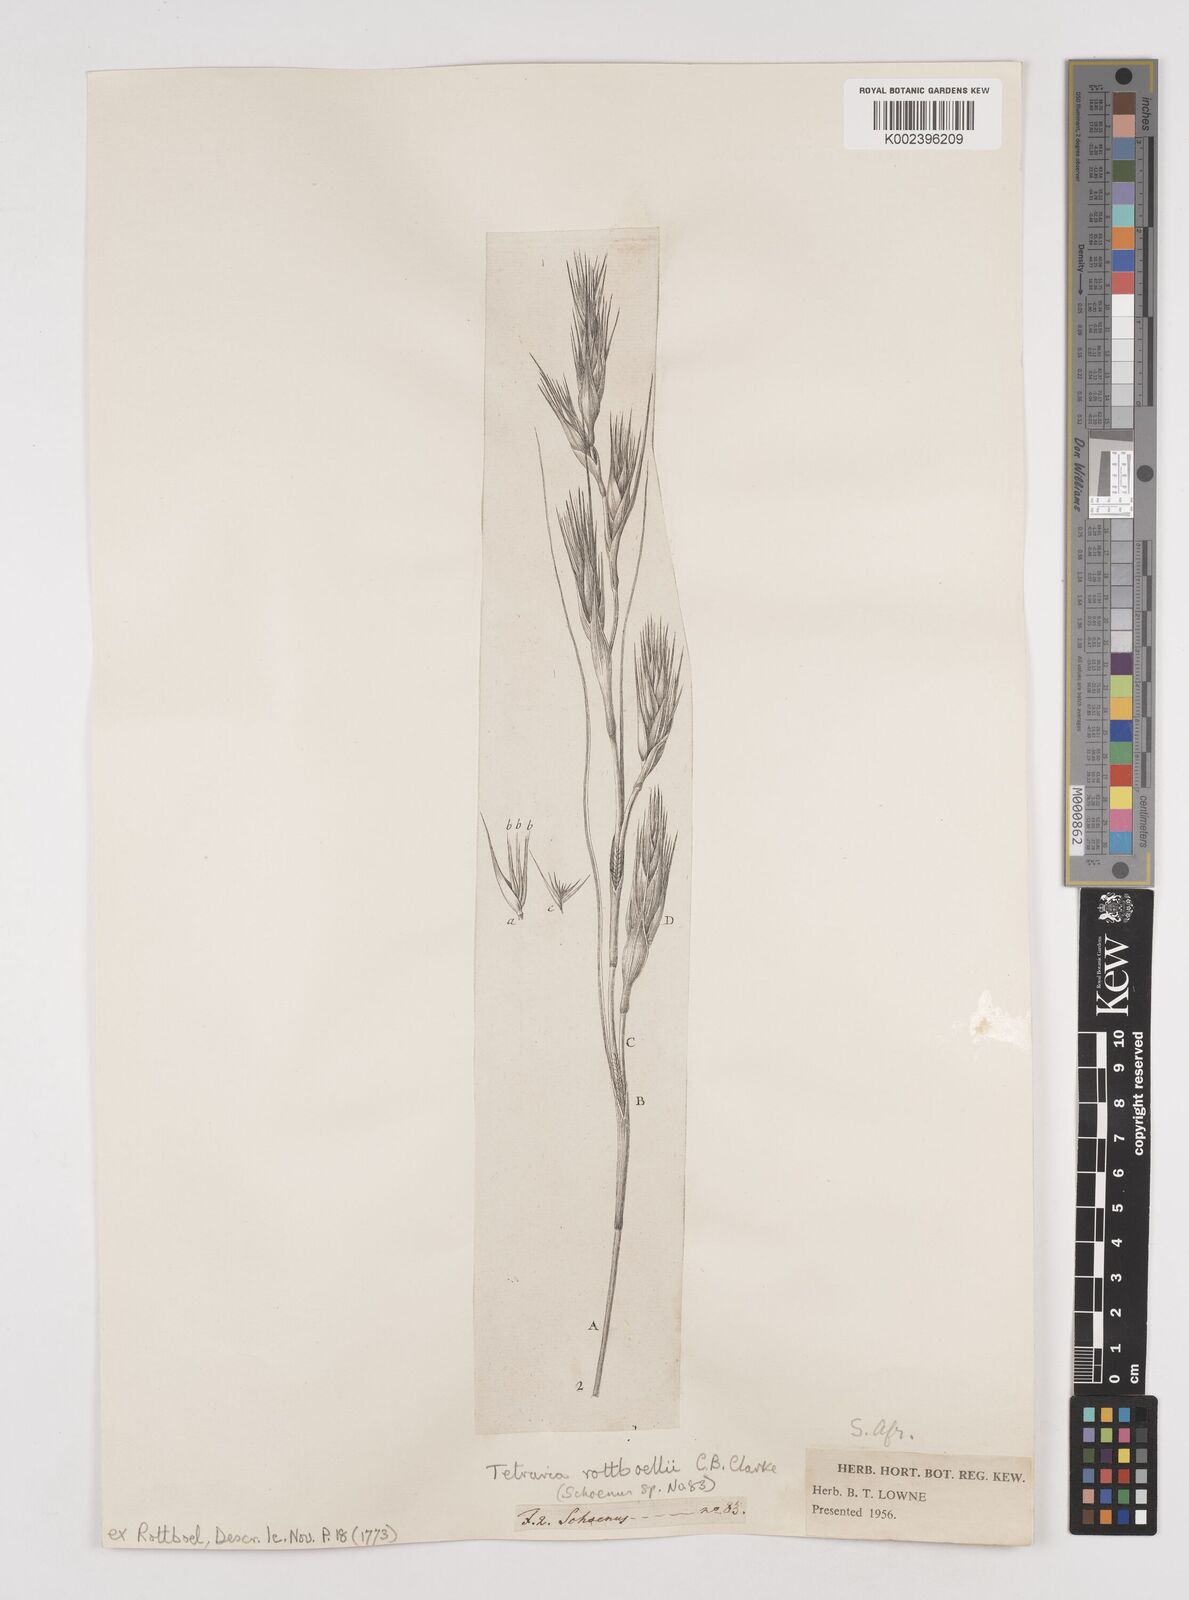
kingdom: Plantae
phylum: Tracheophyta
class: Liliopsida
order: Poales
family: Cyperaceae
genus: Tetraria
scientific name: Tetraria bromoides
